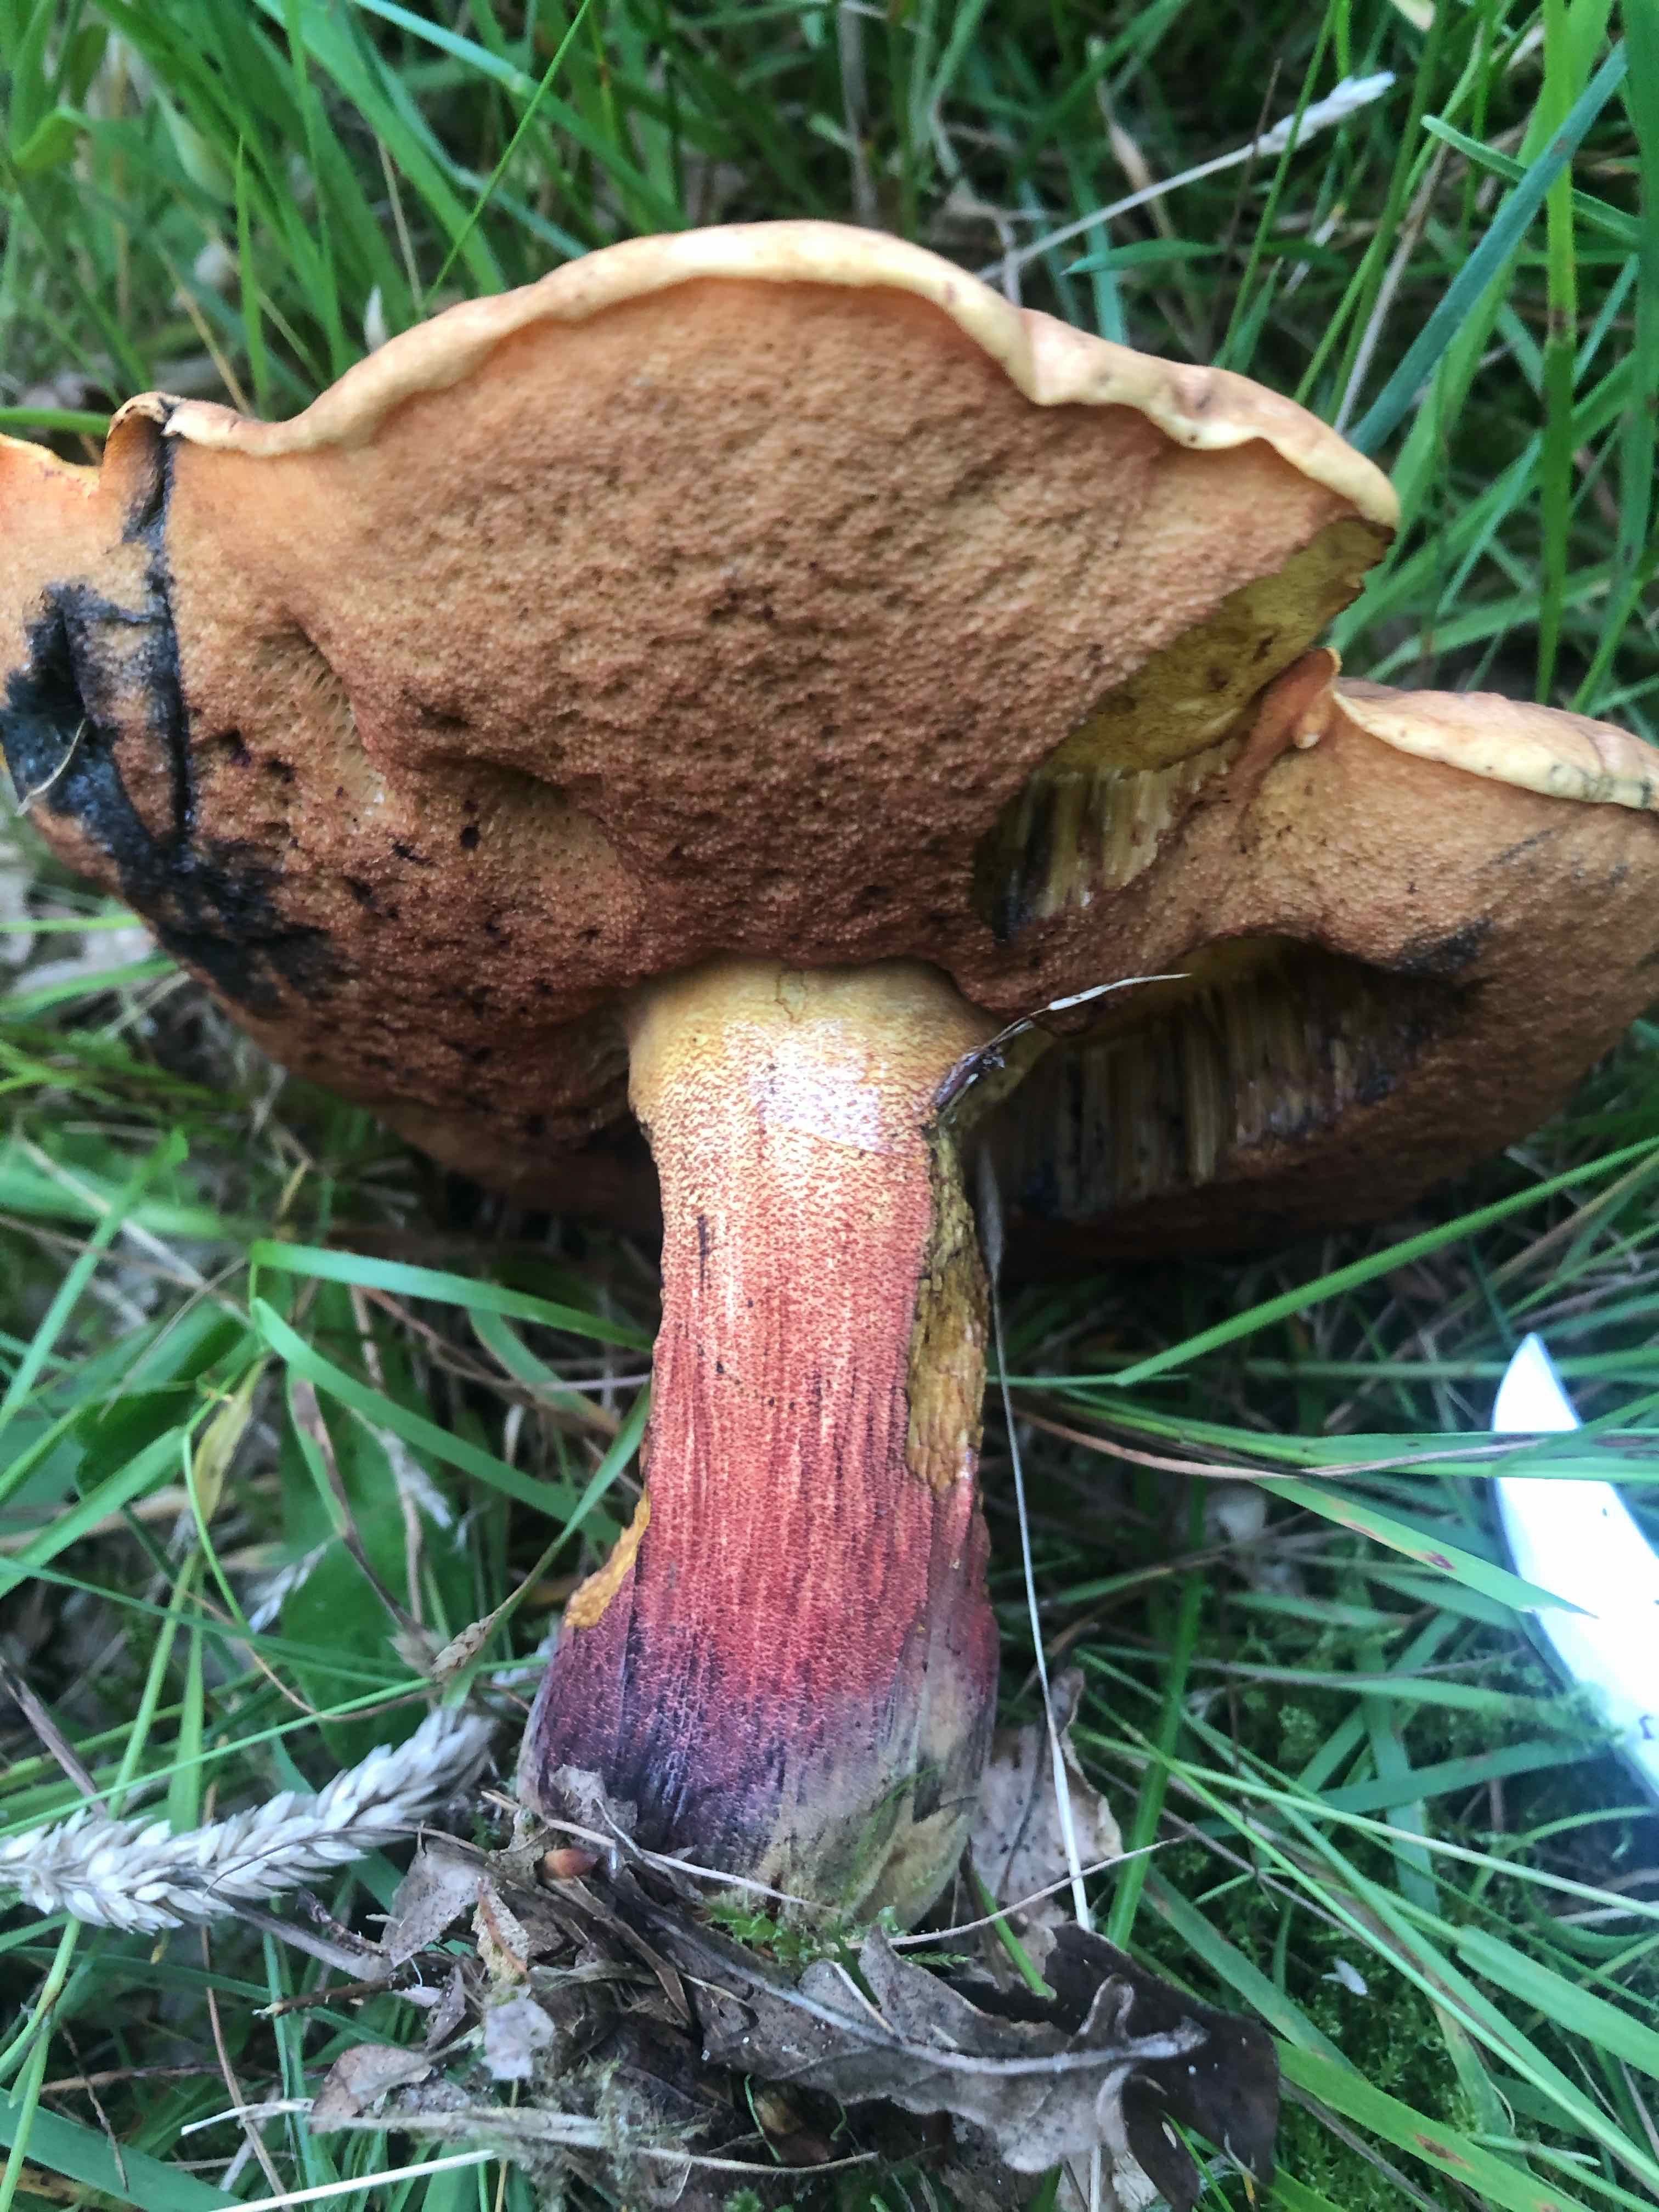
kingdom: Fungi
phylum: Basidiomycota
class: Agaricomycetes
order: Boletales
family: Boletaceae
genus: Neoboletus
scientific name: Neoboletus erythropus
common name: punktstokket indigorørhat
